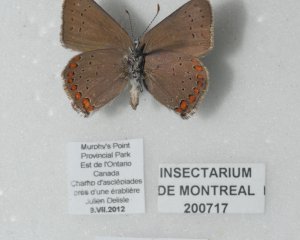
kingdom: Animalia
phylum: Arthropoda
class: Insecta
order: Lepidoptera
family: Lycaenidae
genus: Harkenclenus
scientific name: Harkenclenus titus
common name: Coral Hairstreak
